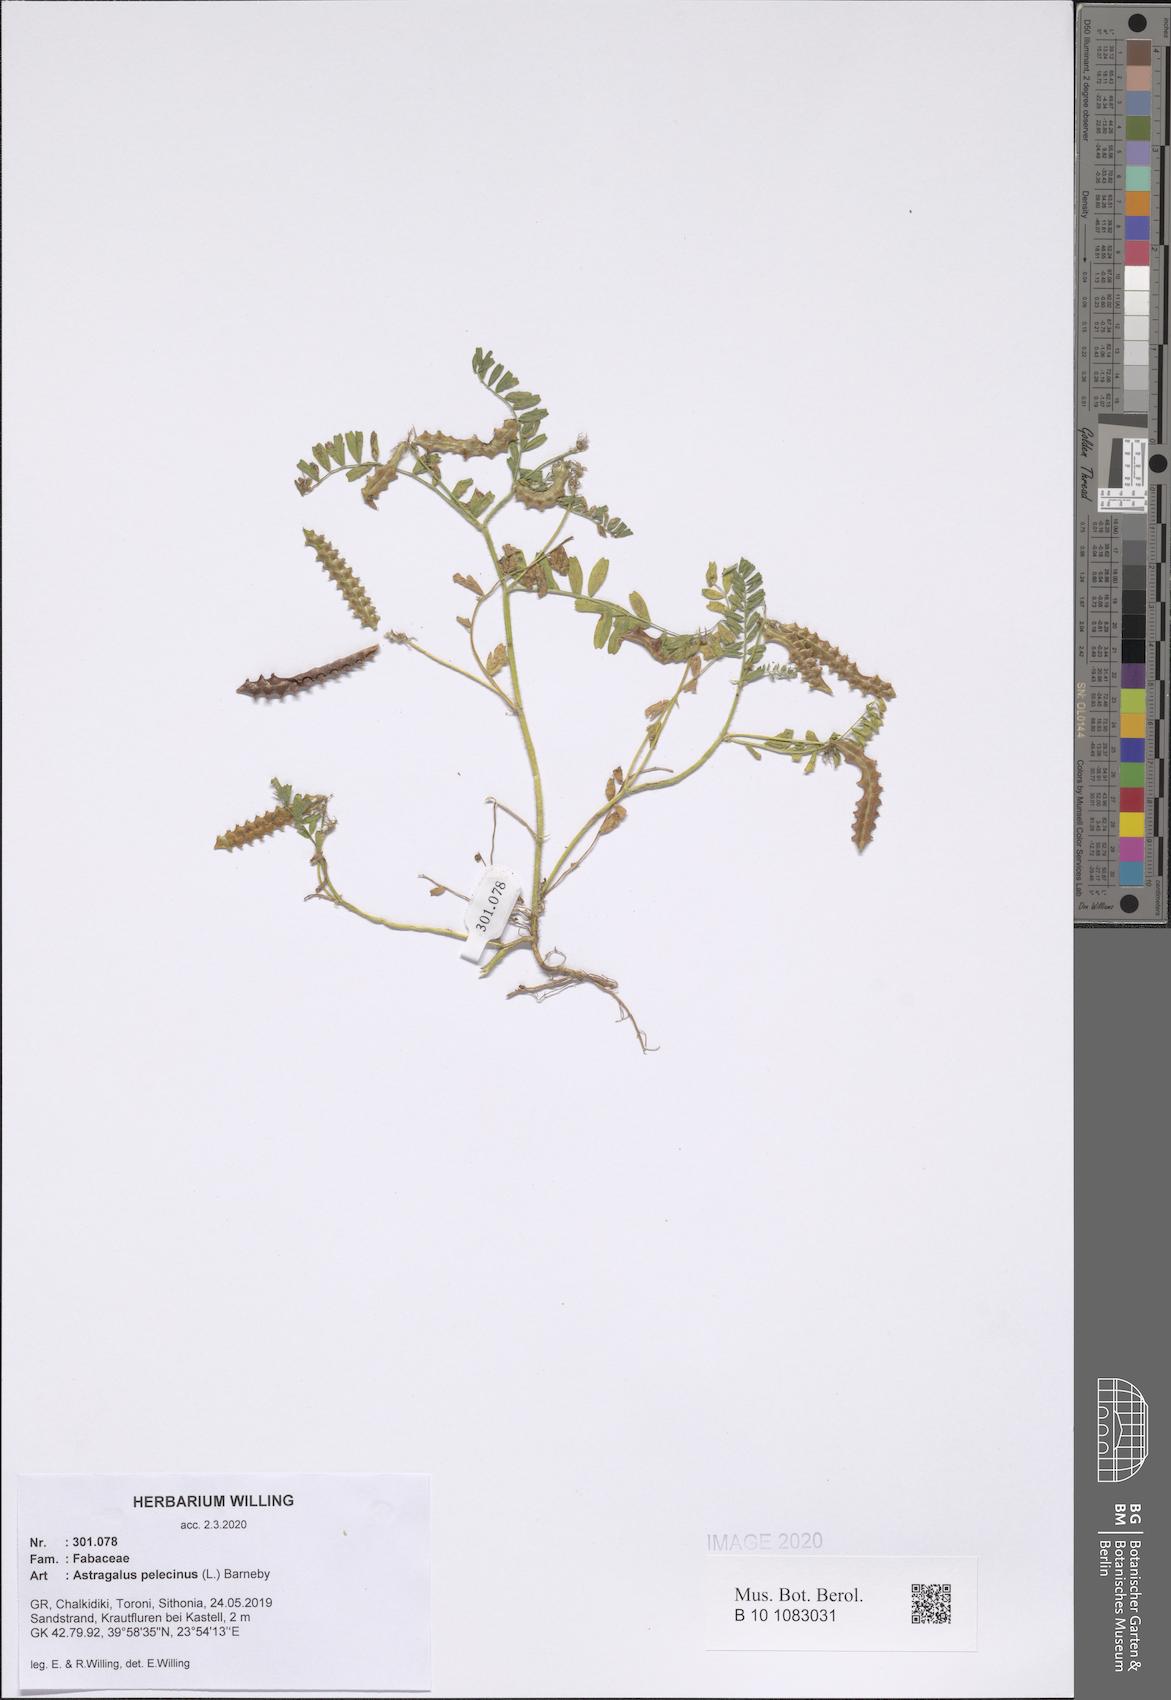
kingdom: Plantae
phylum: Tracheophyta
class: Magnoliopsida
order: Fabales
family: Fabaceae
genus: Biserrula
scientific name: Biserrula pelecinus
